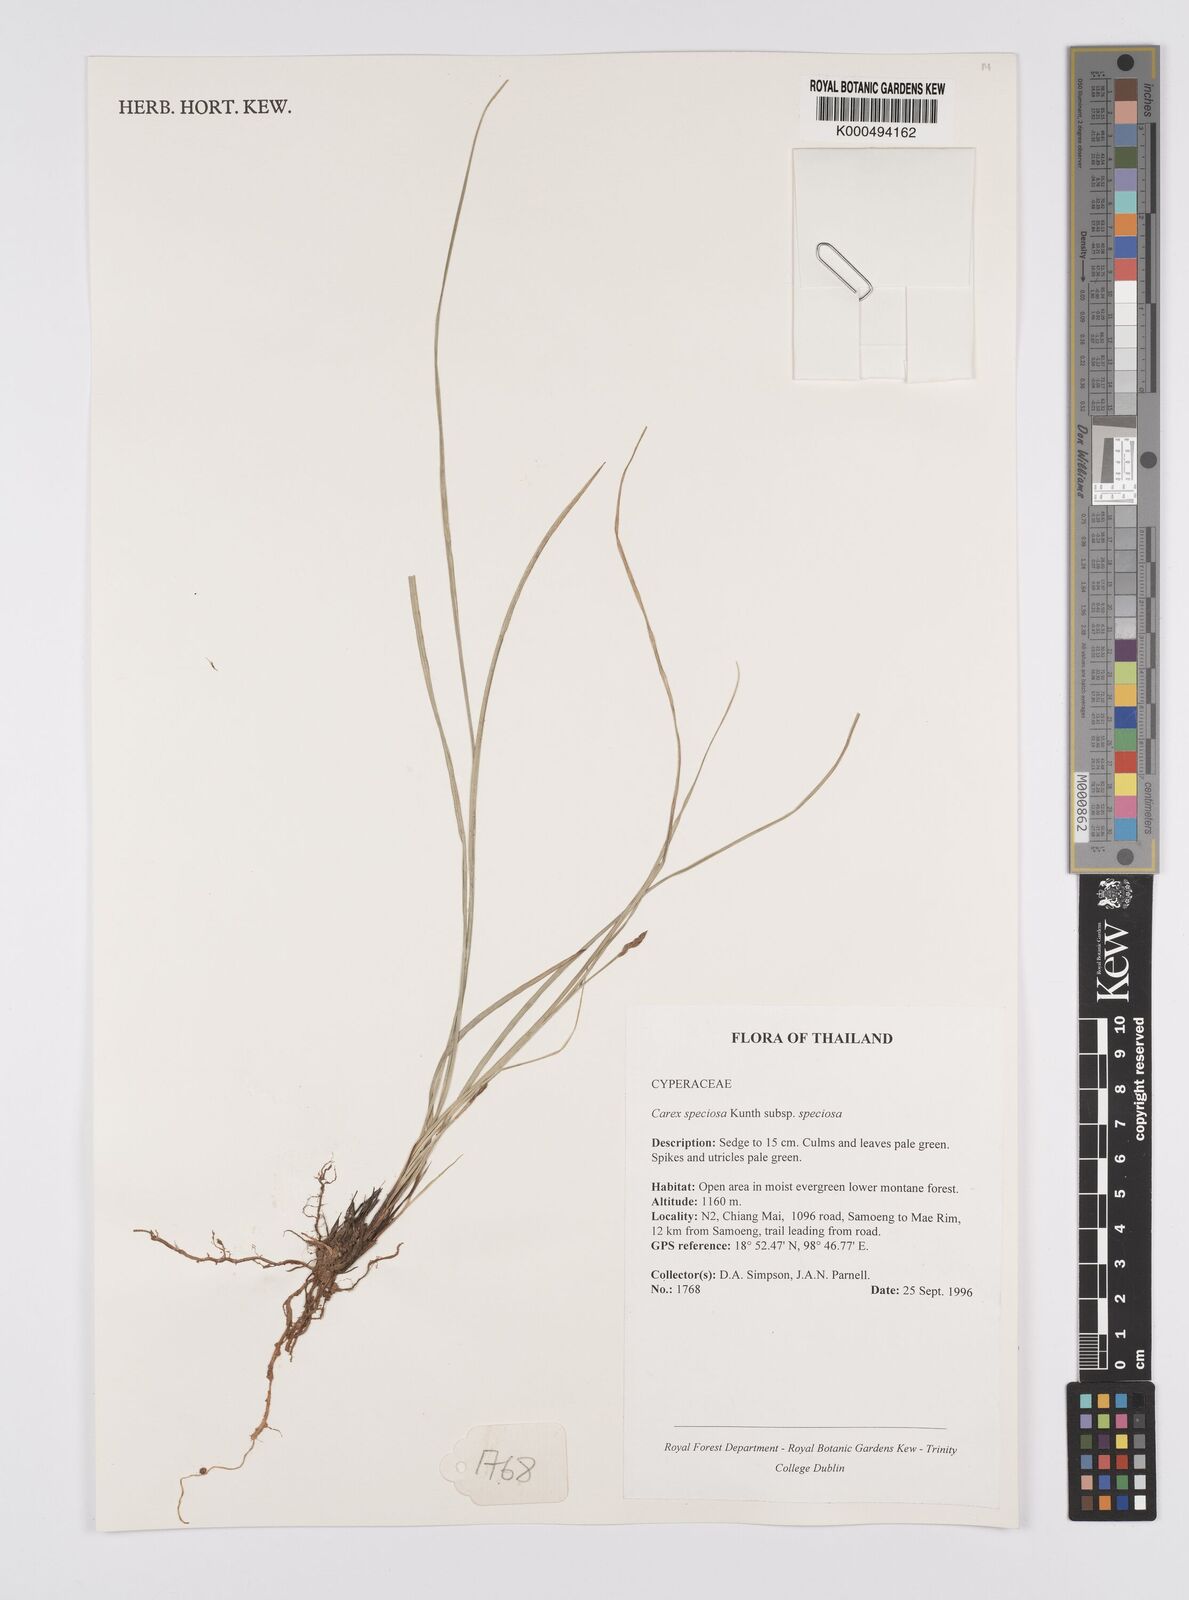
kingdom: Plantae
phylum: Tracheophyta
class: Liliopsida
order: Poales
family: Cyperaceae
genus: Carex
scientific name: Carex speciosa
